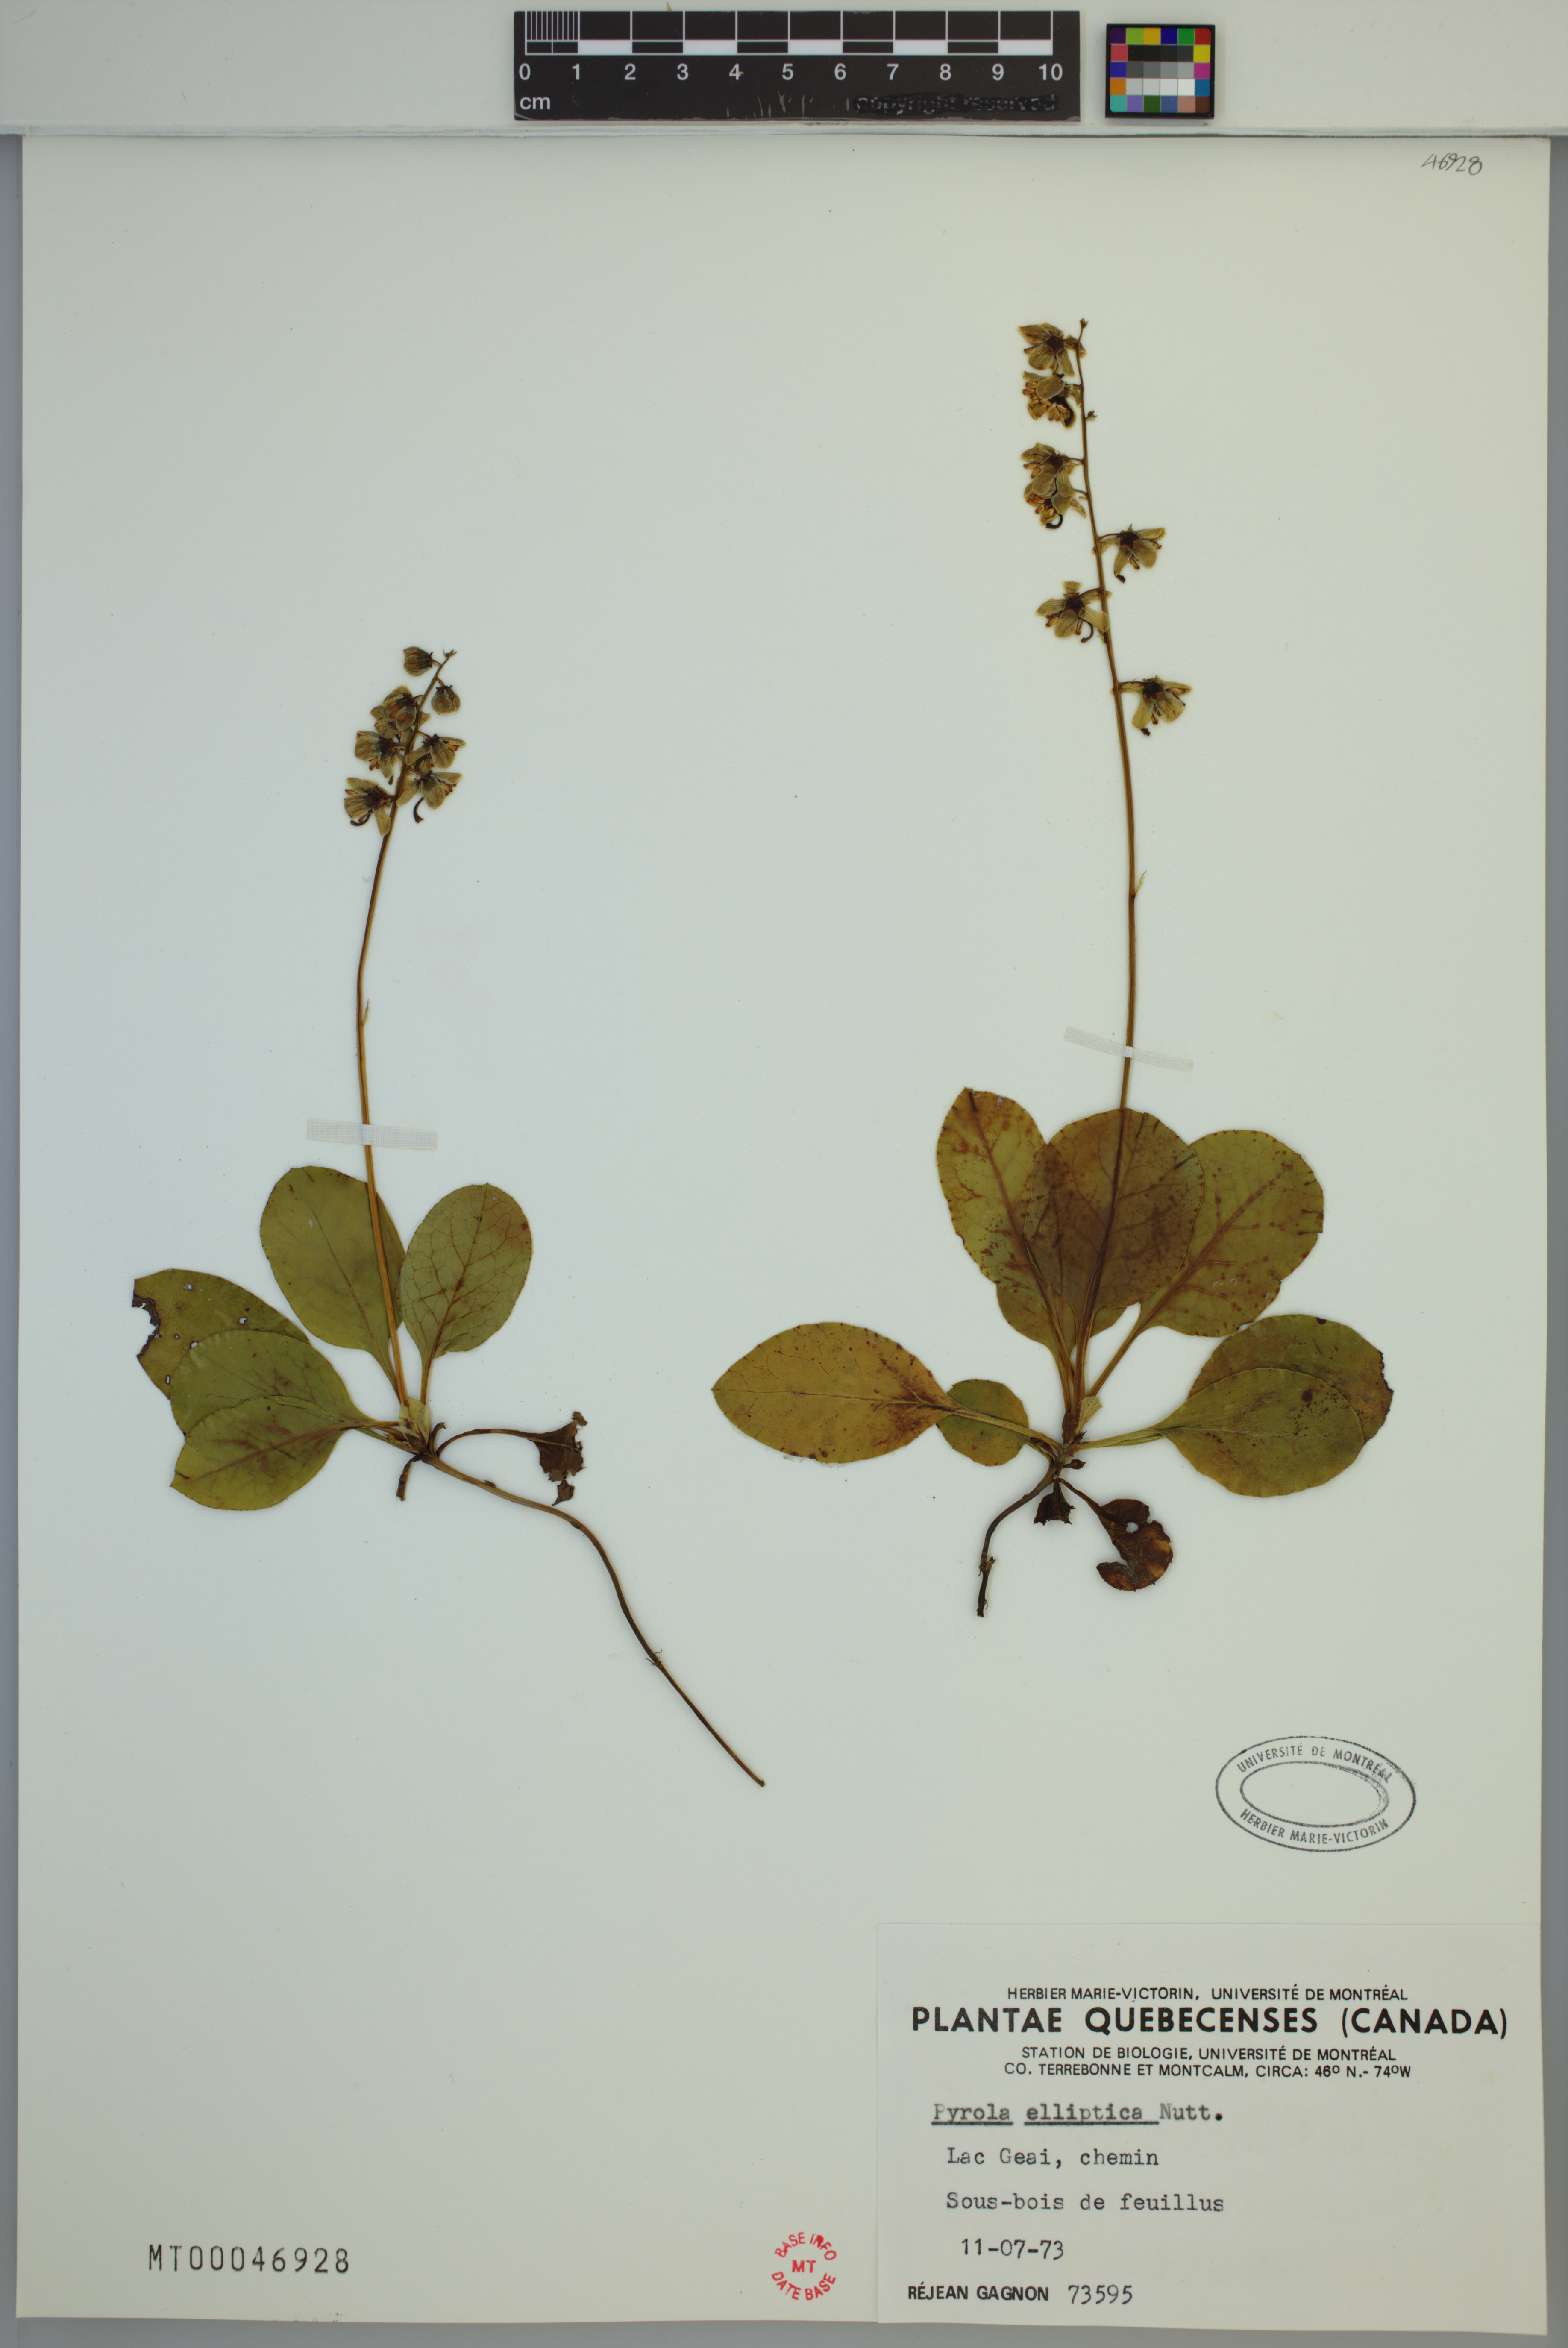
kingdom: Plantae
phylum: Tracheophyta
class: Magnoliopsida
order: Ericales
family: Ericaceae
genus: Pyrola
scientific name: Pyrola elliptica
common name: Shinleaf
